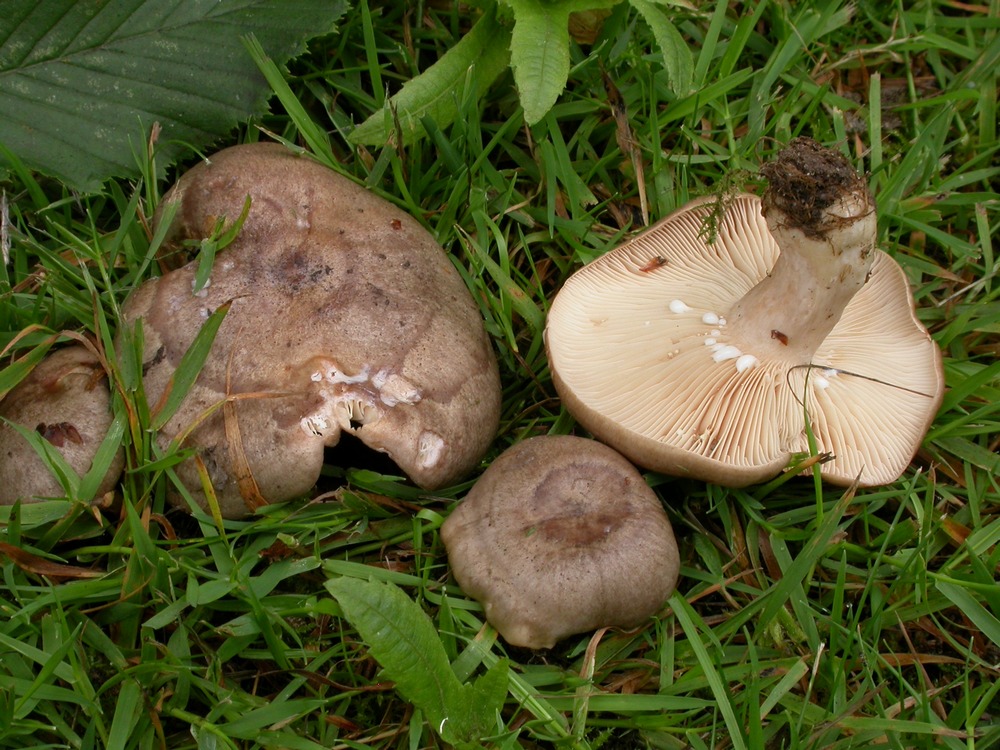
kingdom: Fungi
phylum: Basidiomycota
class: Agaricomycetes
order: Russulales
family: Russulaceae
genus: Lactarius
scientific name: Lactarius circellatus
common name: avnbøg-mælkehat
